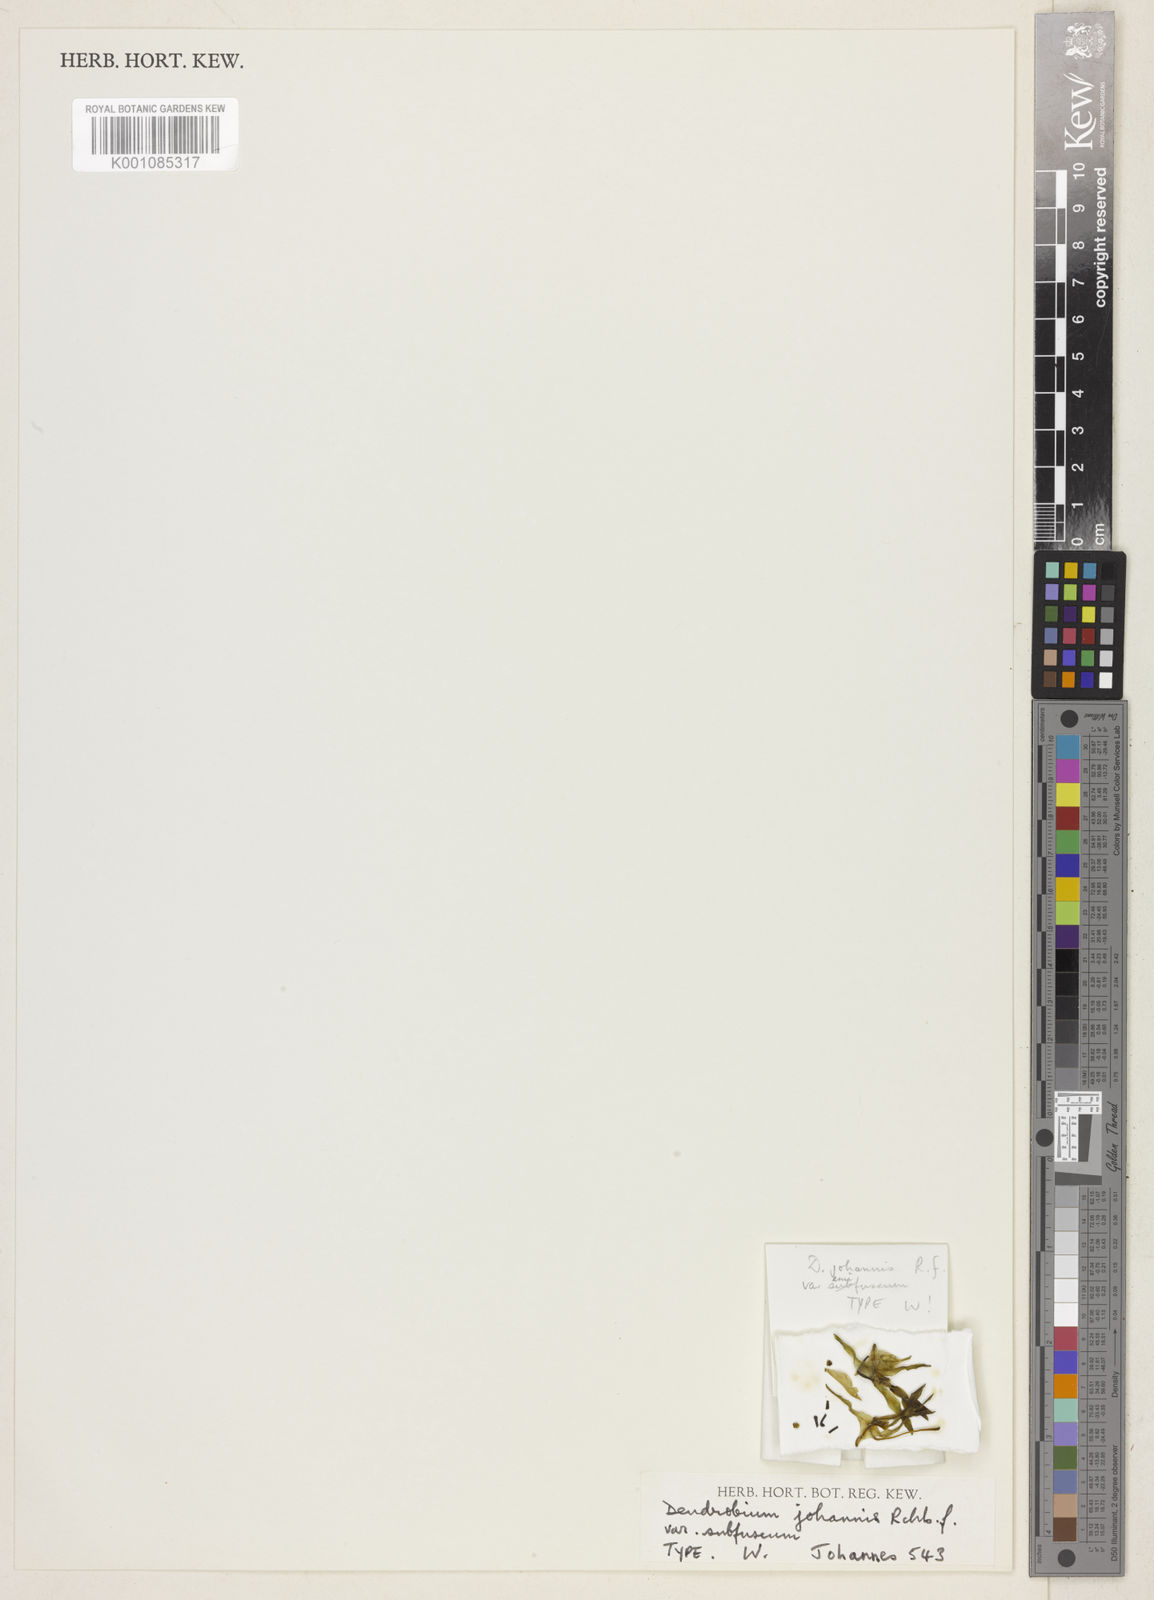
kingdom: Plantae
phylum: Tracheophyta
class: Liliopsida
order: Asparagales
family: Orchidaceae
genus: Dendrobium
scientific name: Dendrobium angustifolium
